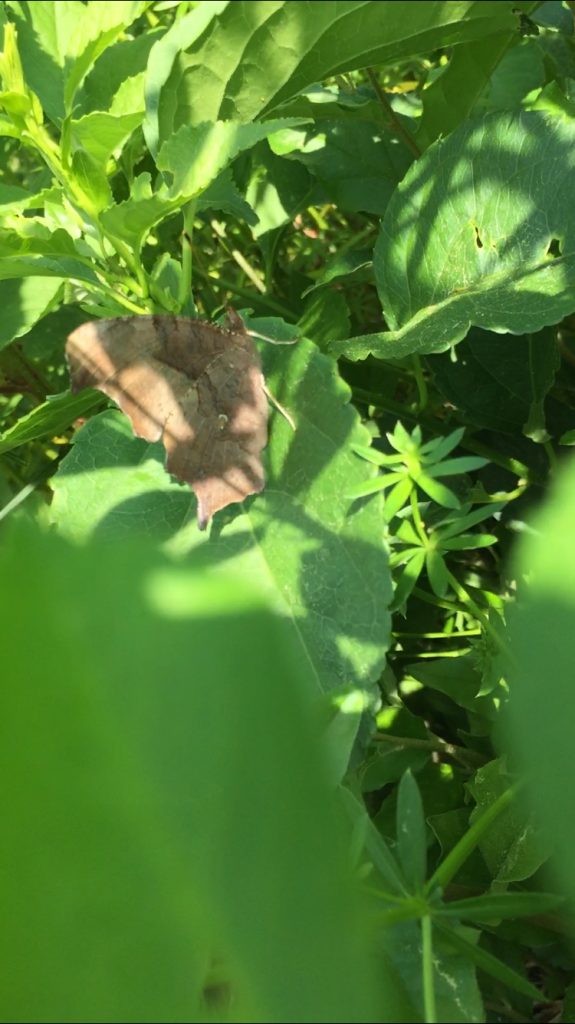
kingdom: Animalia
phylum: Arthropoda
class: Insecta
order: Lepidoptera
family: Nymphalidae
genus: Polygonia
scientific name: Polygonia interrogationis
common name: Question Mark
